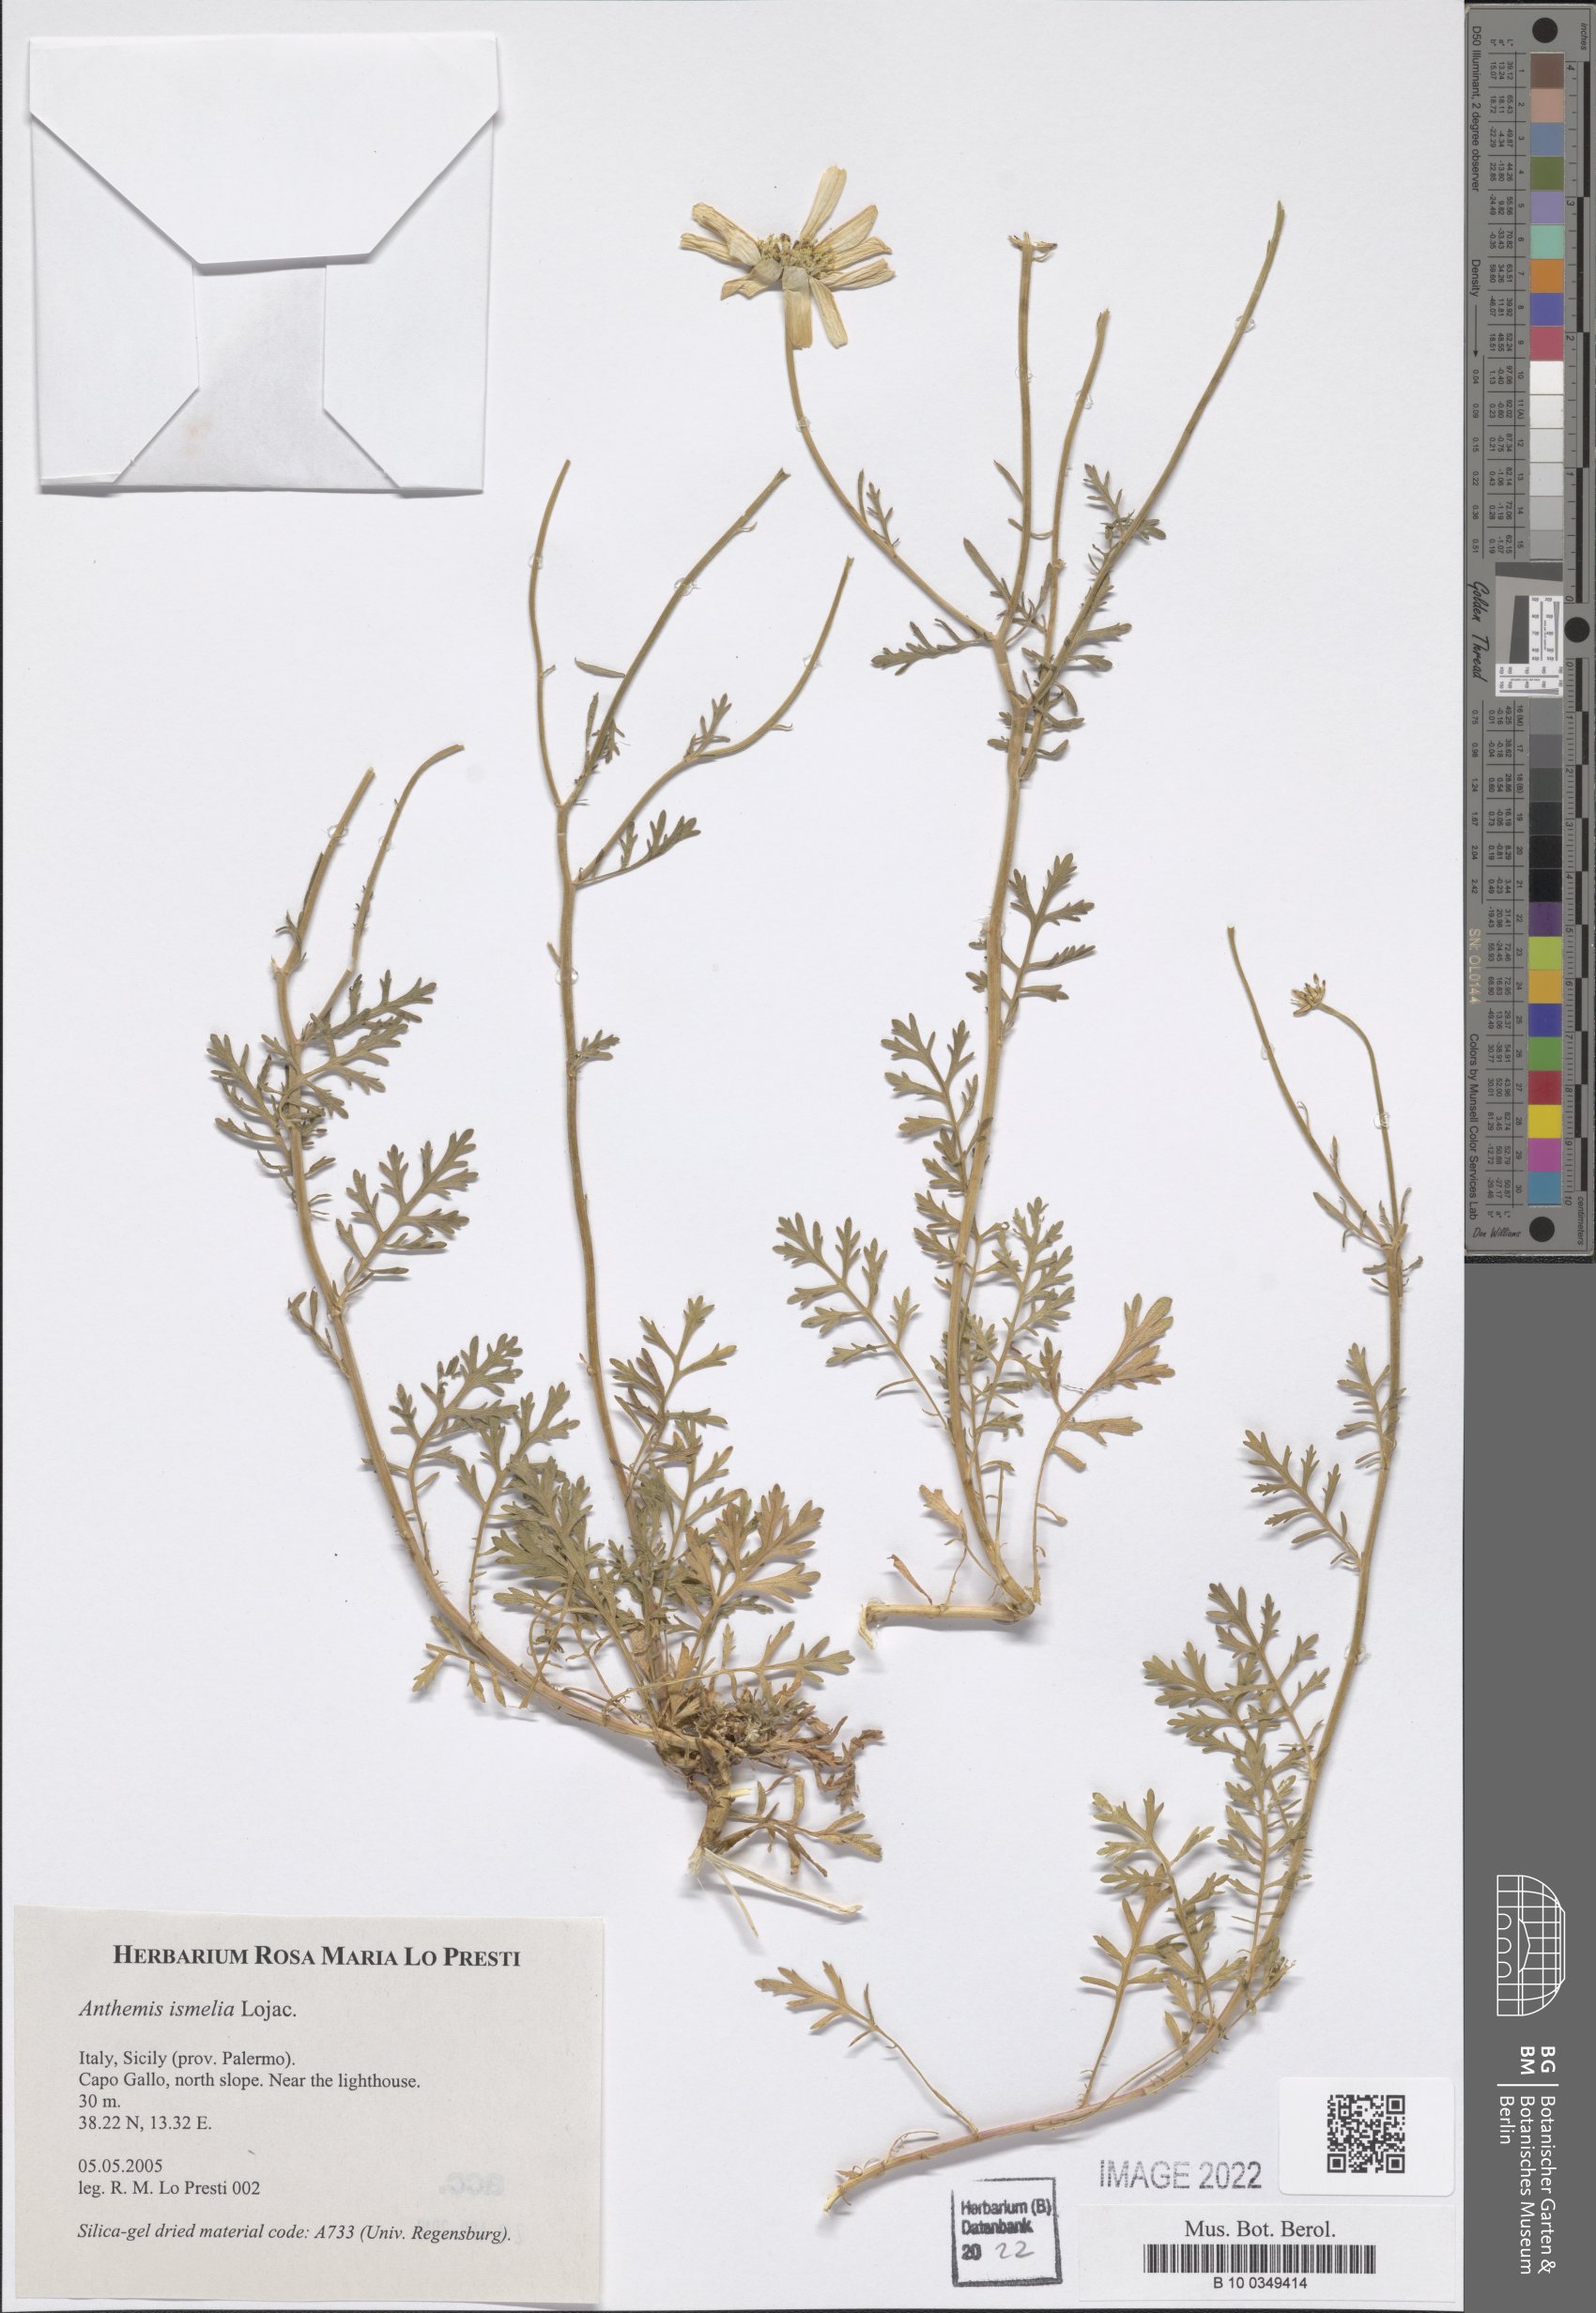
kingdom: Plantae
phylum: Tracheophyta
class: Magnoliopsida
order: Asterales
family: Asteraceae
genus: Anthemis
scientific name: Anthemis ismelia
